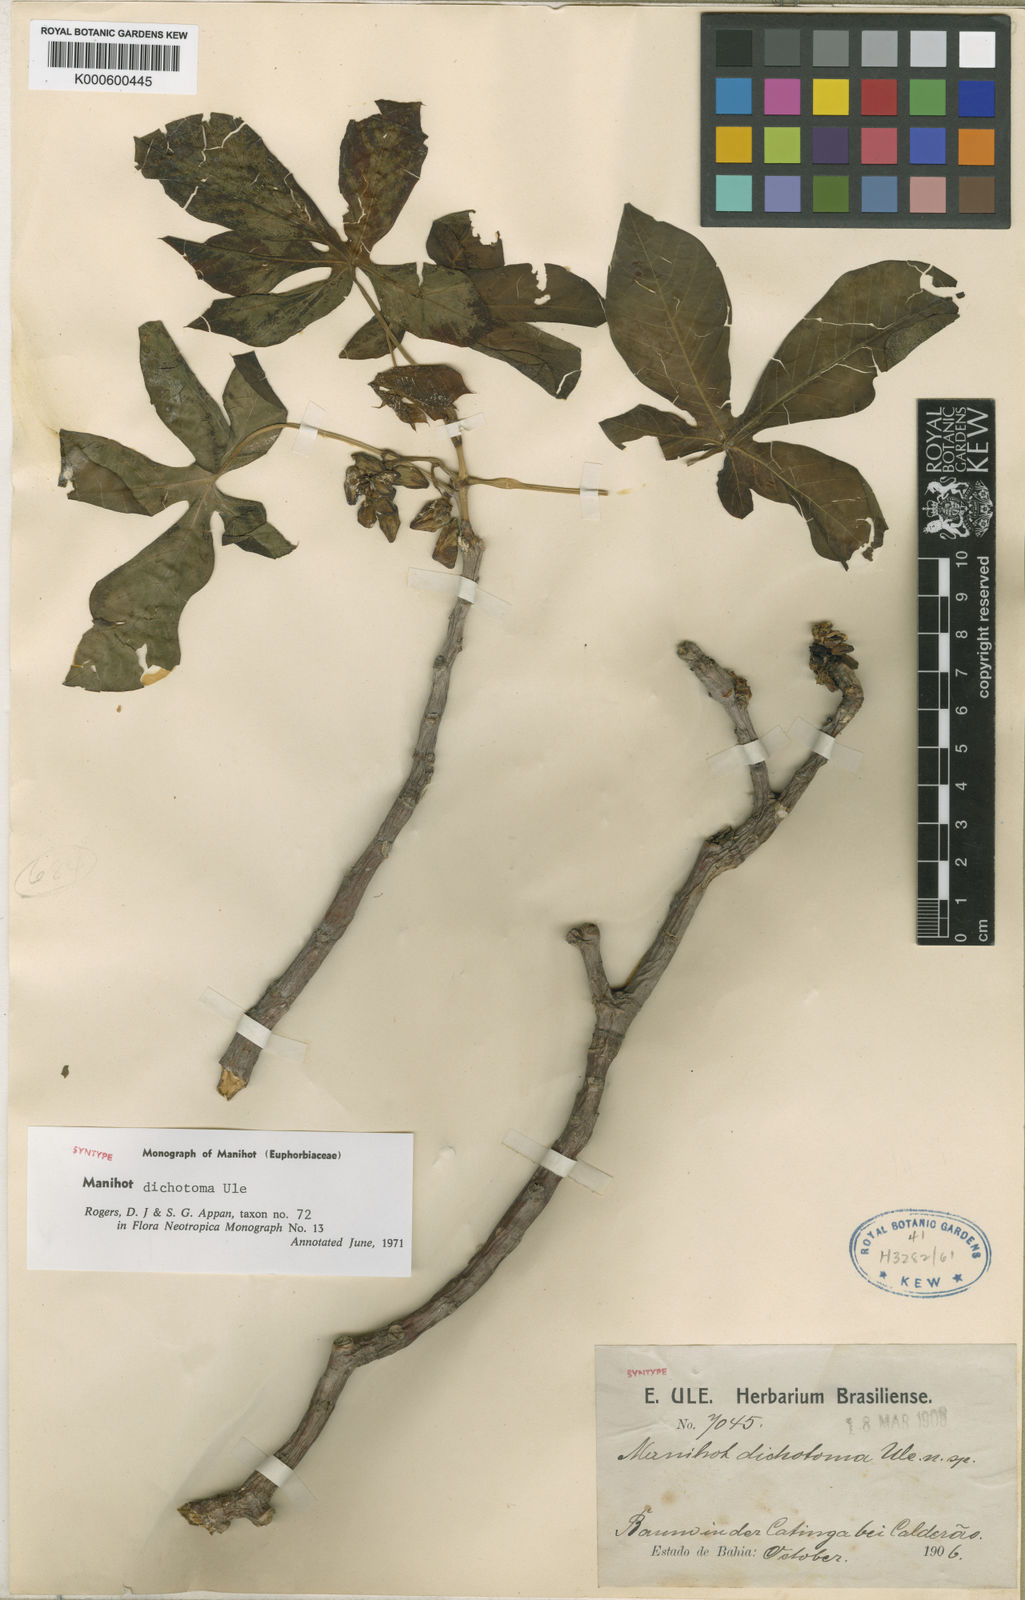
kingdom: Plantae
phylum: Tracheophyta
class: Magnoliopsida
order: Malpighiales
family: Euphorbiaceae
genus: Manihot
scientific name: Manihot dichotoma
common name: Jequie rubber tree
